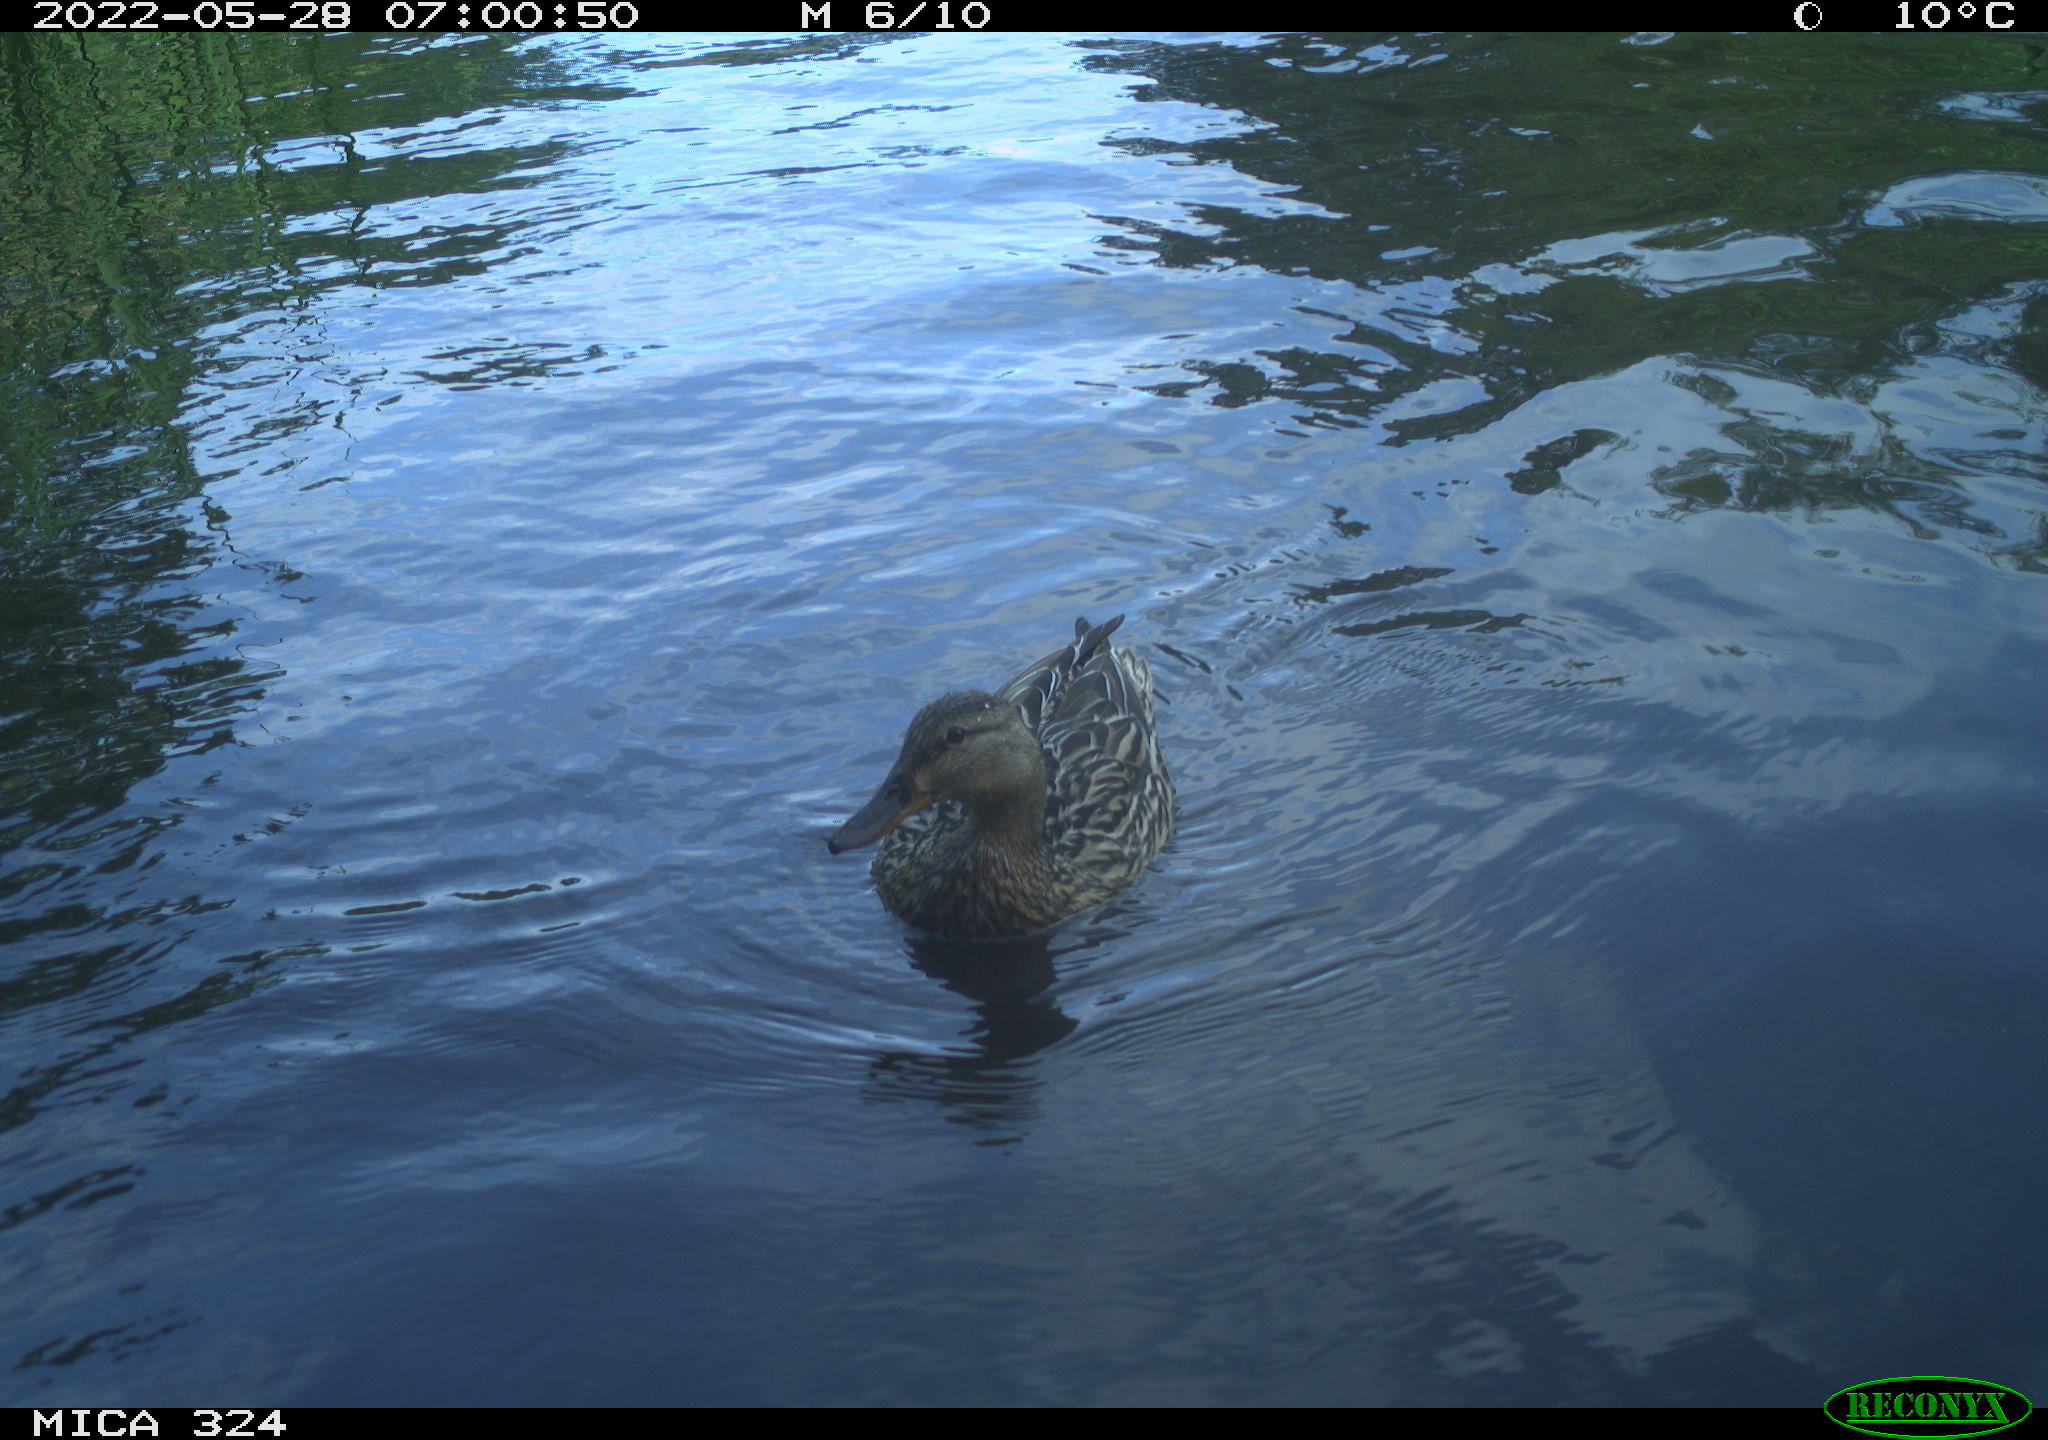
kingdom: Animalia
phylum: Chordata
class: Aves
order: Anseriformes
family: Anatidae
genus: Anas
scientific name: Anas platyrhynchos
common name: Mallard
